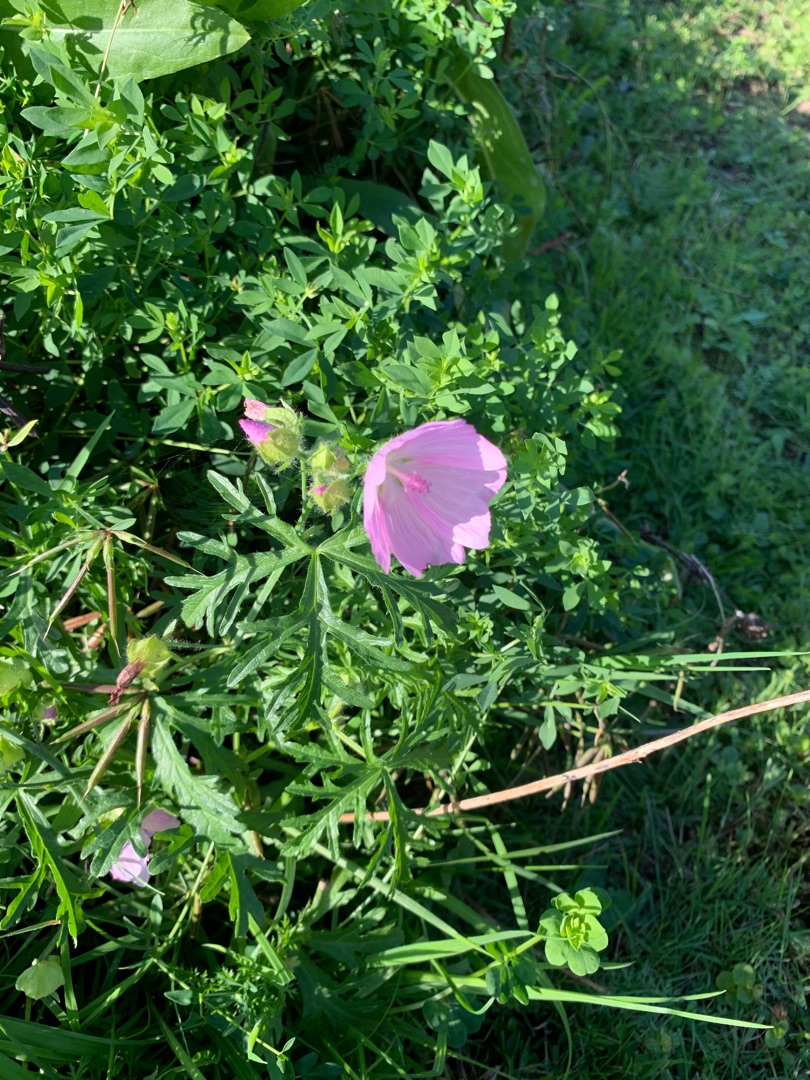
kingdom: Plantae
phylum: Tracheophyta
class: Magnoliopsida
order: Malvales
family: Malvaceae
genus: Malva
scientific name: Malva moschata
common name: Moskus-katost
